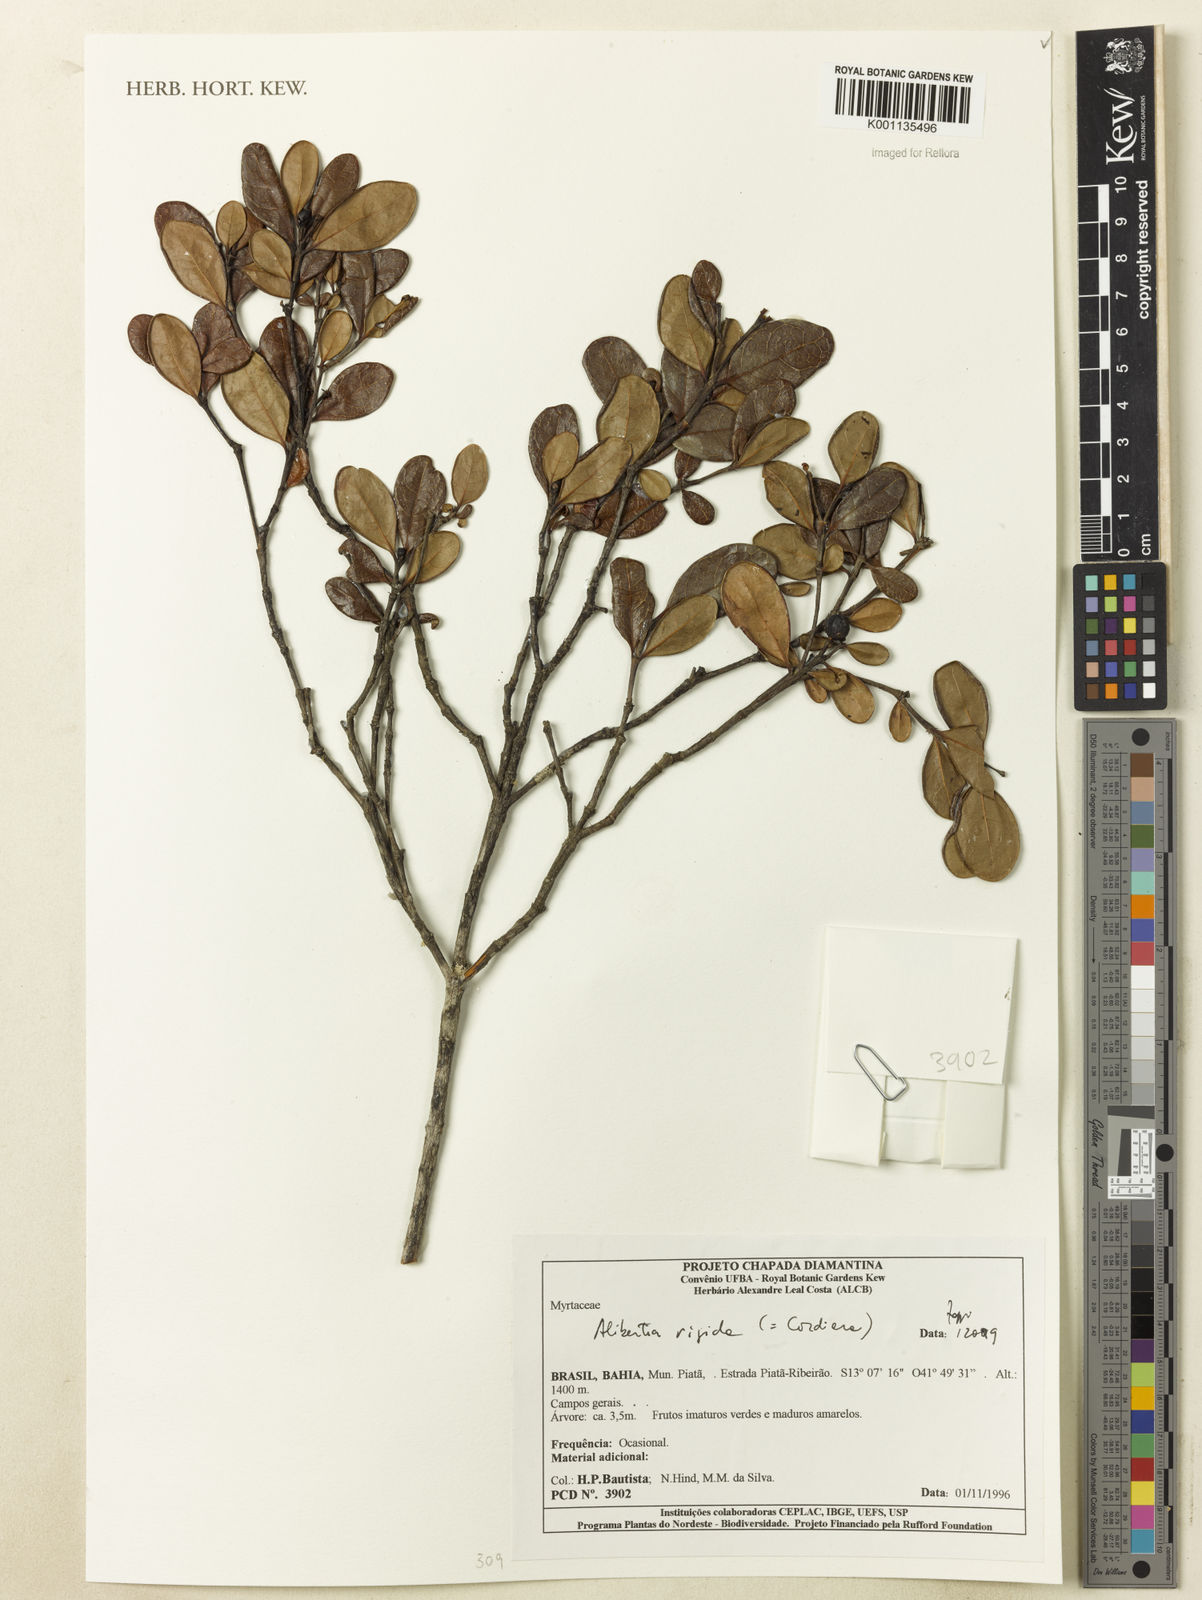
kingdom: Plantae
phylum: Tracheophyta
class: Magnoliopsida
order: Gentianales
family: Rubiaceae
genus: Cordiera
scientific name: Cordiera rigida
